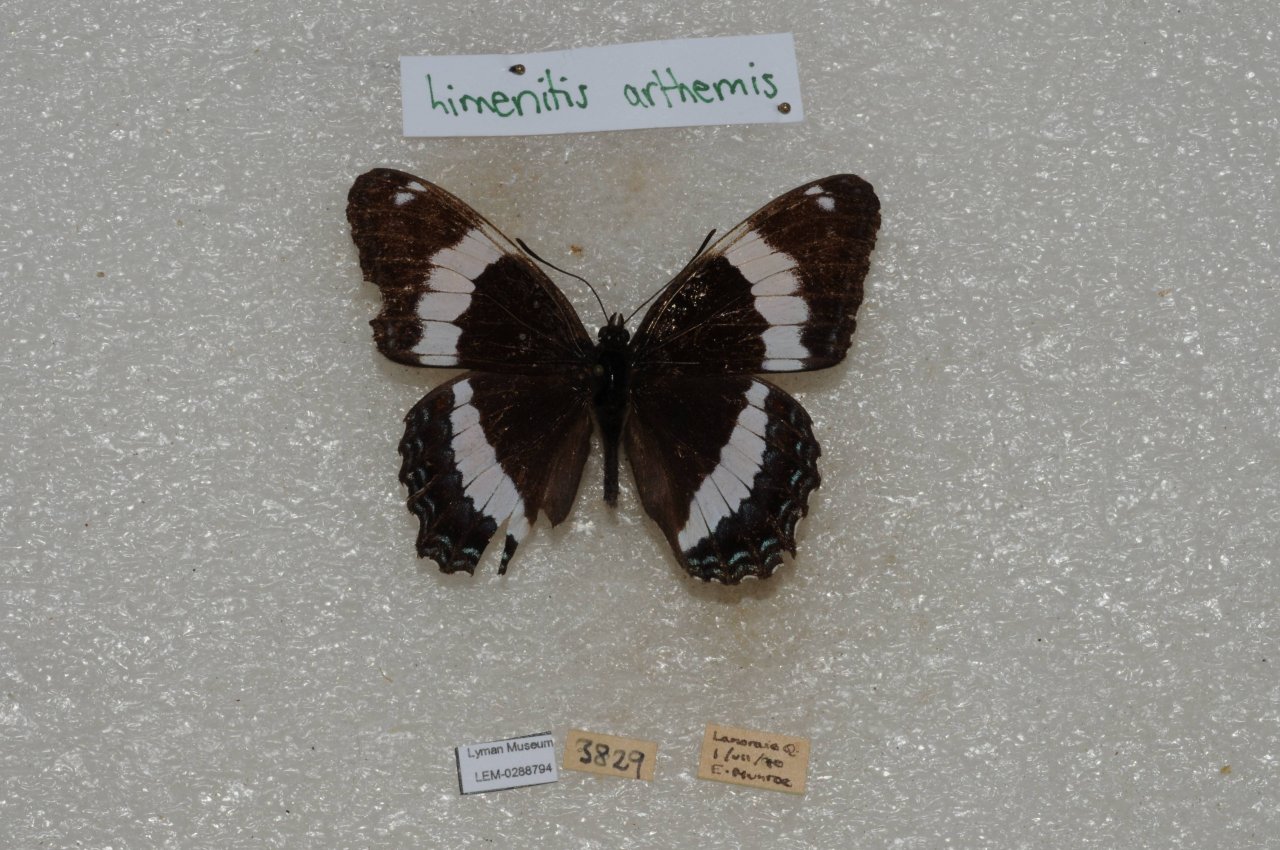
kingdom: Animalia
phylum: Arthropoda
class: Insecta
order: Lepidoptera
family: Nymphalidae
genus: Limenitis
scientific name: Limenitis arthemis
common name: Red-spotted Admiral
